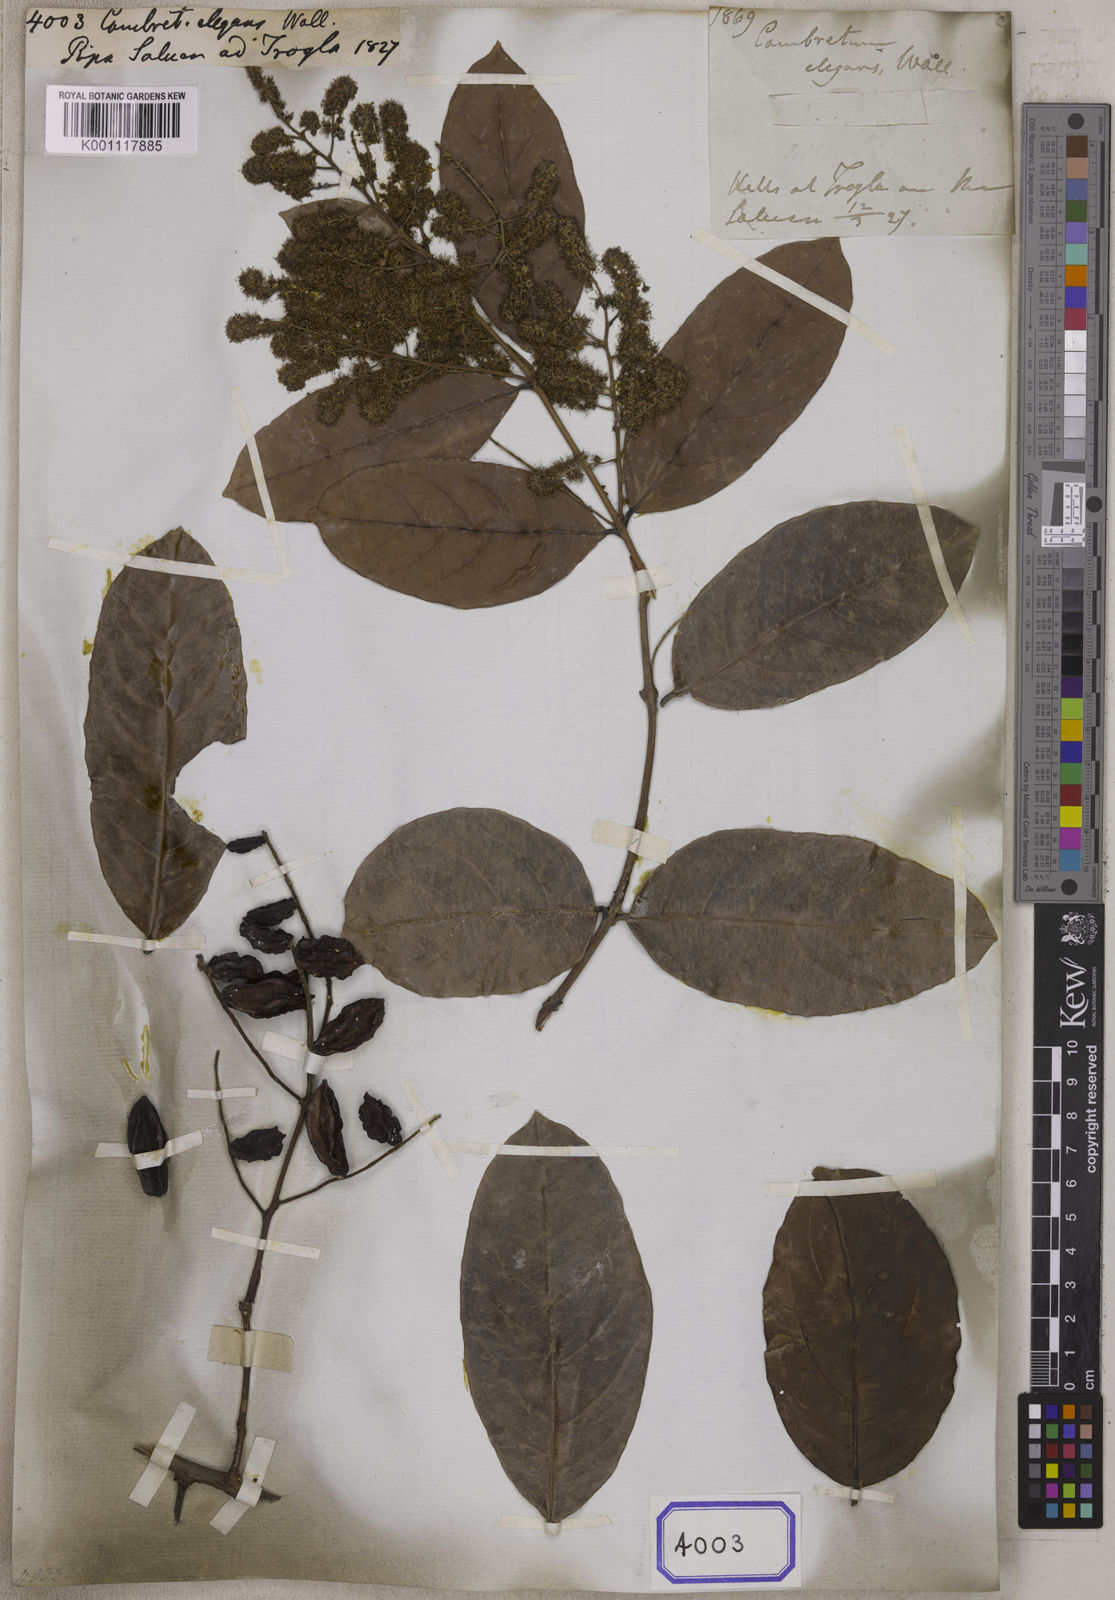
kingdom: Plantae
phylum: Tracheophyta
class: Magnoliopsida
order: Myrtales
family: Combretaceae
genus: Combretum
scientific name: Combretum
